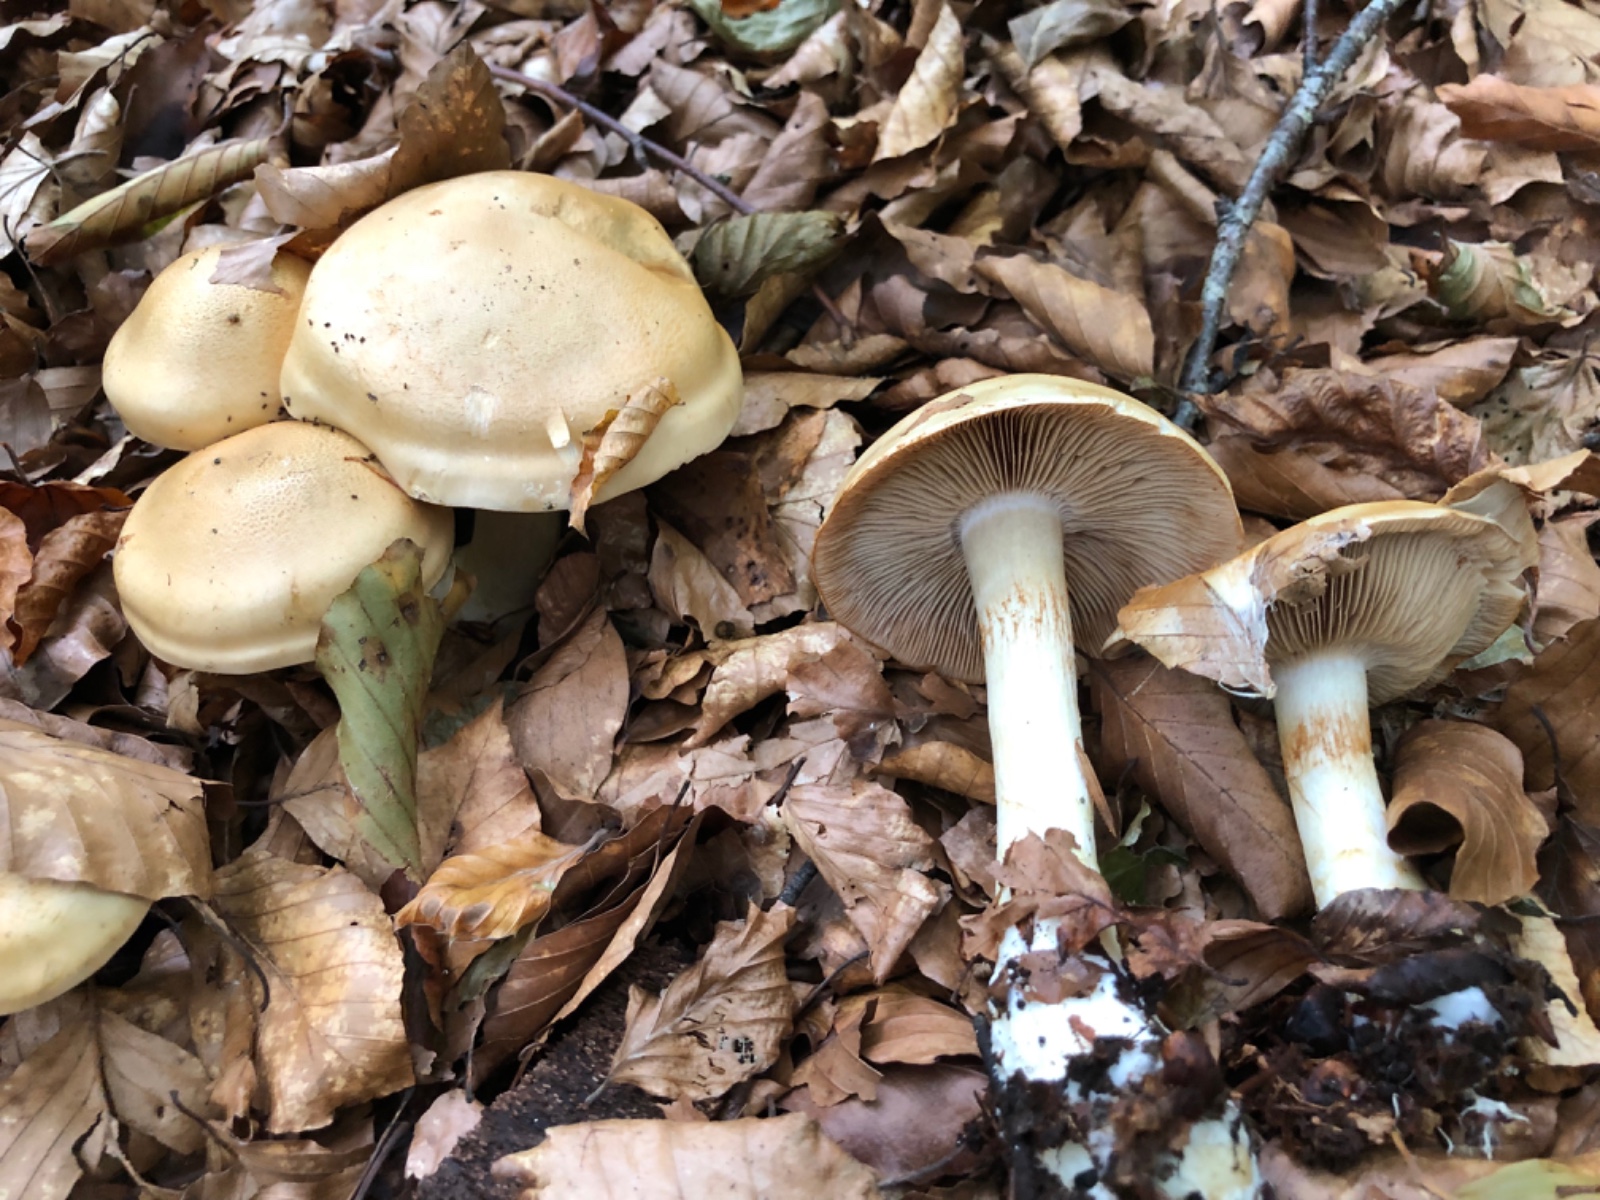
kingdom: Fungi
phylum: Basidiomycota
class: Agaricomycetes
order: Agaricales
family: Cortinariaceae
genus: Phlegmacium
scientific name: Phlegmacium cliduchus
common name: majs-slørhat
